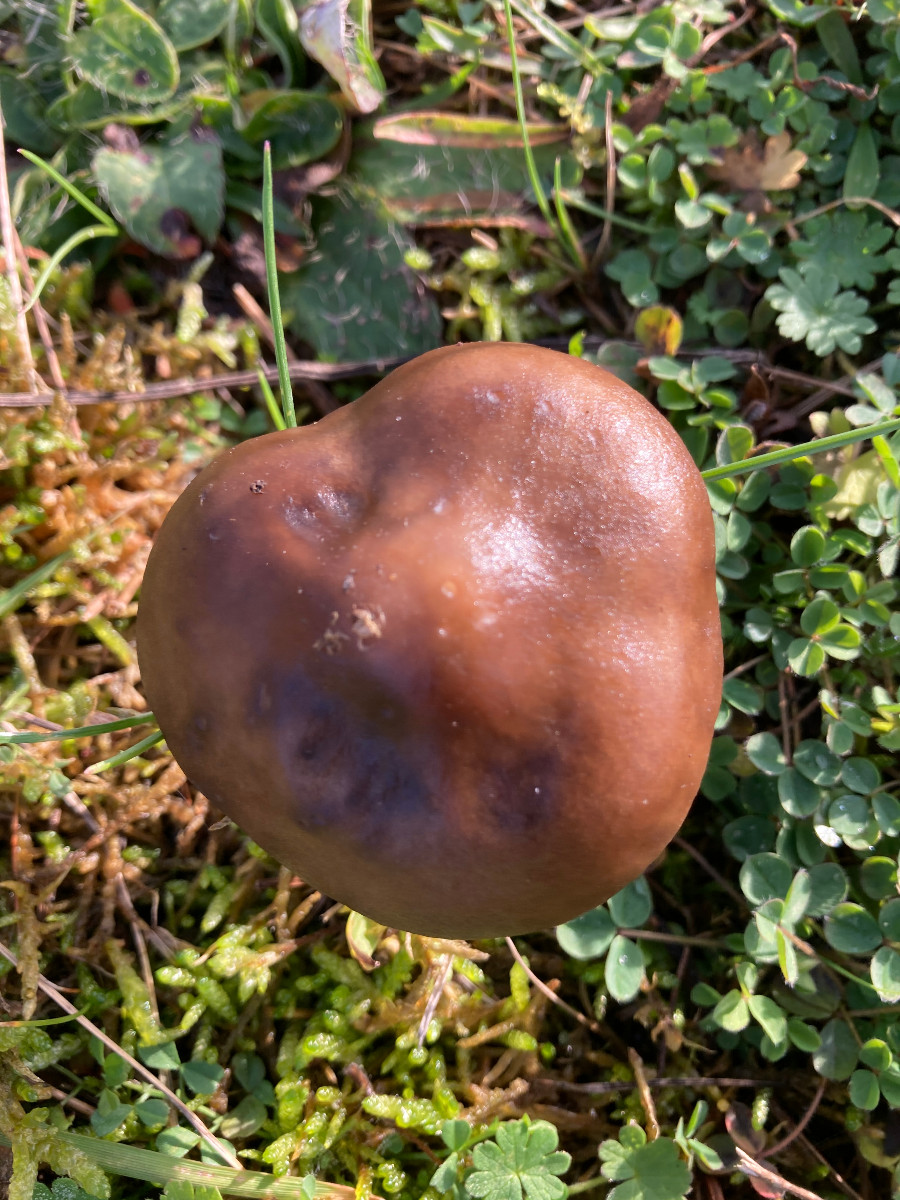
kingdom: Fungi
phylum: Basidiomycota
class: Agaricomycetes
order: Agaricales
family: Tricholomataceae
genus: Melanoleuca
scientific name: Melanoleuca
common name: munkehat
